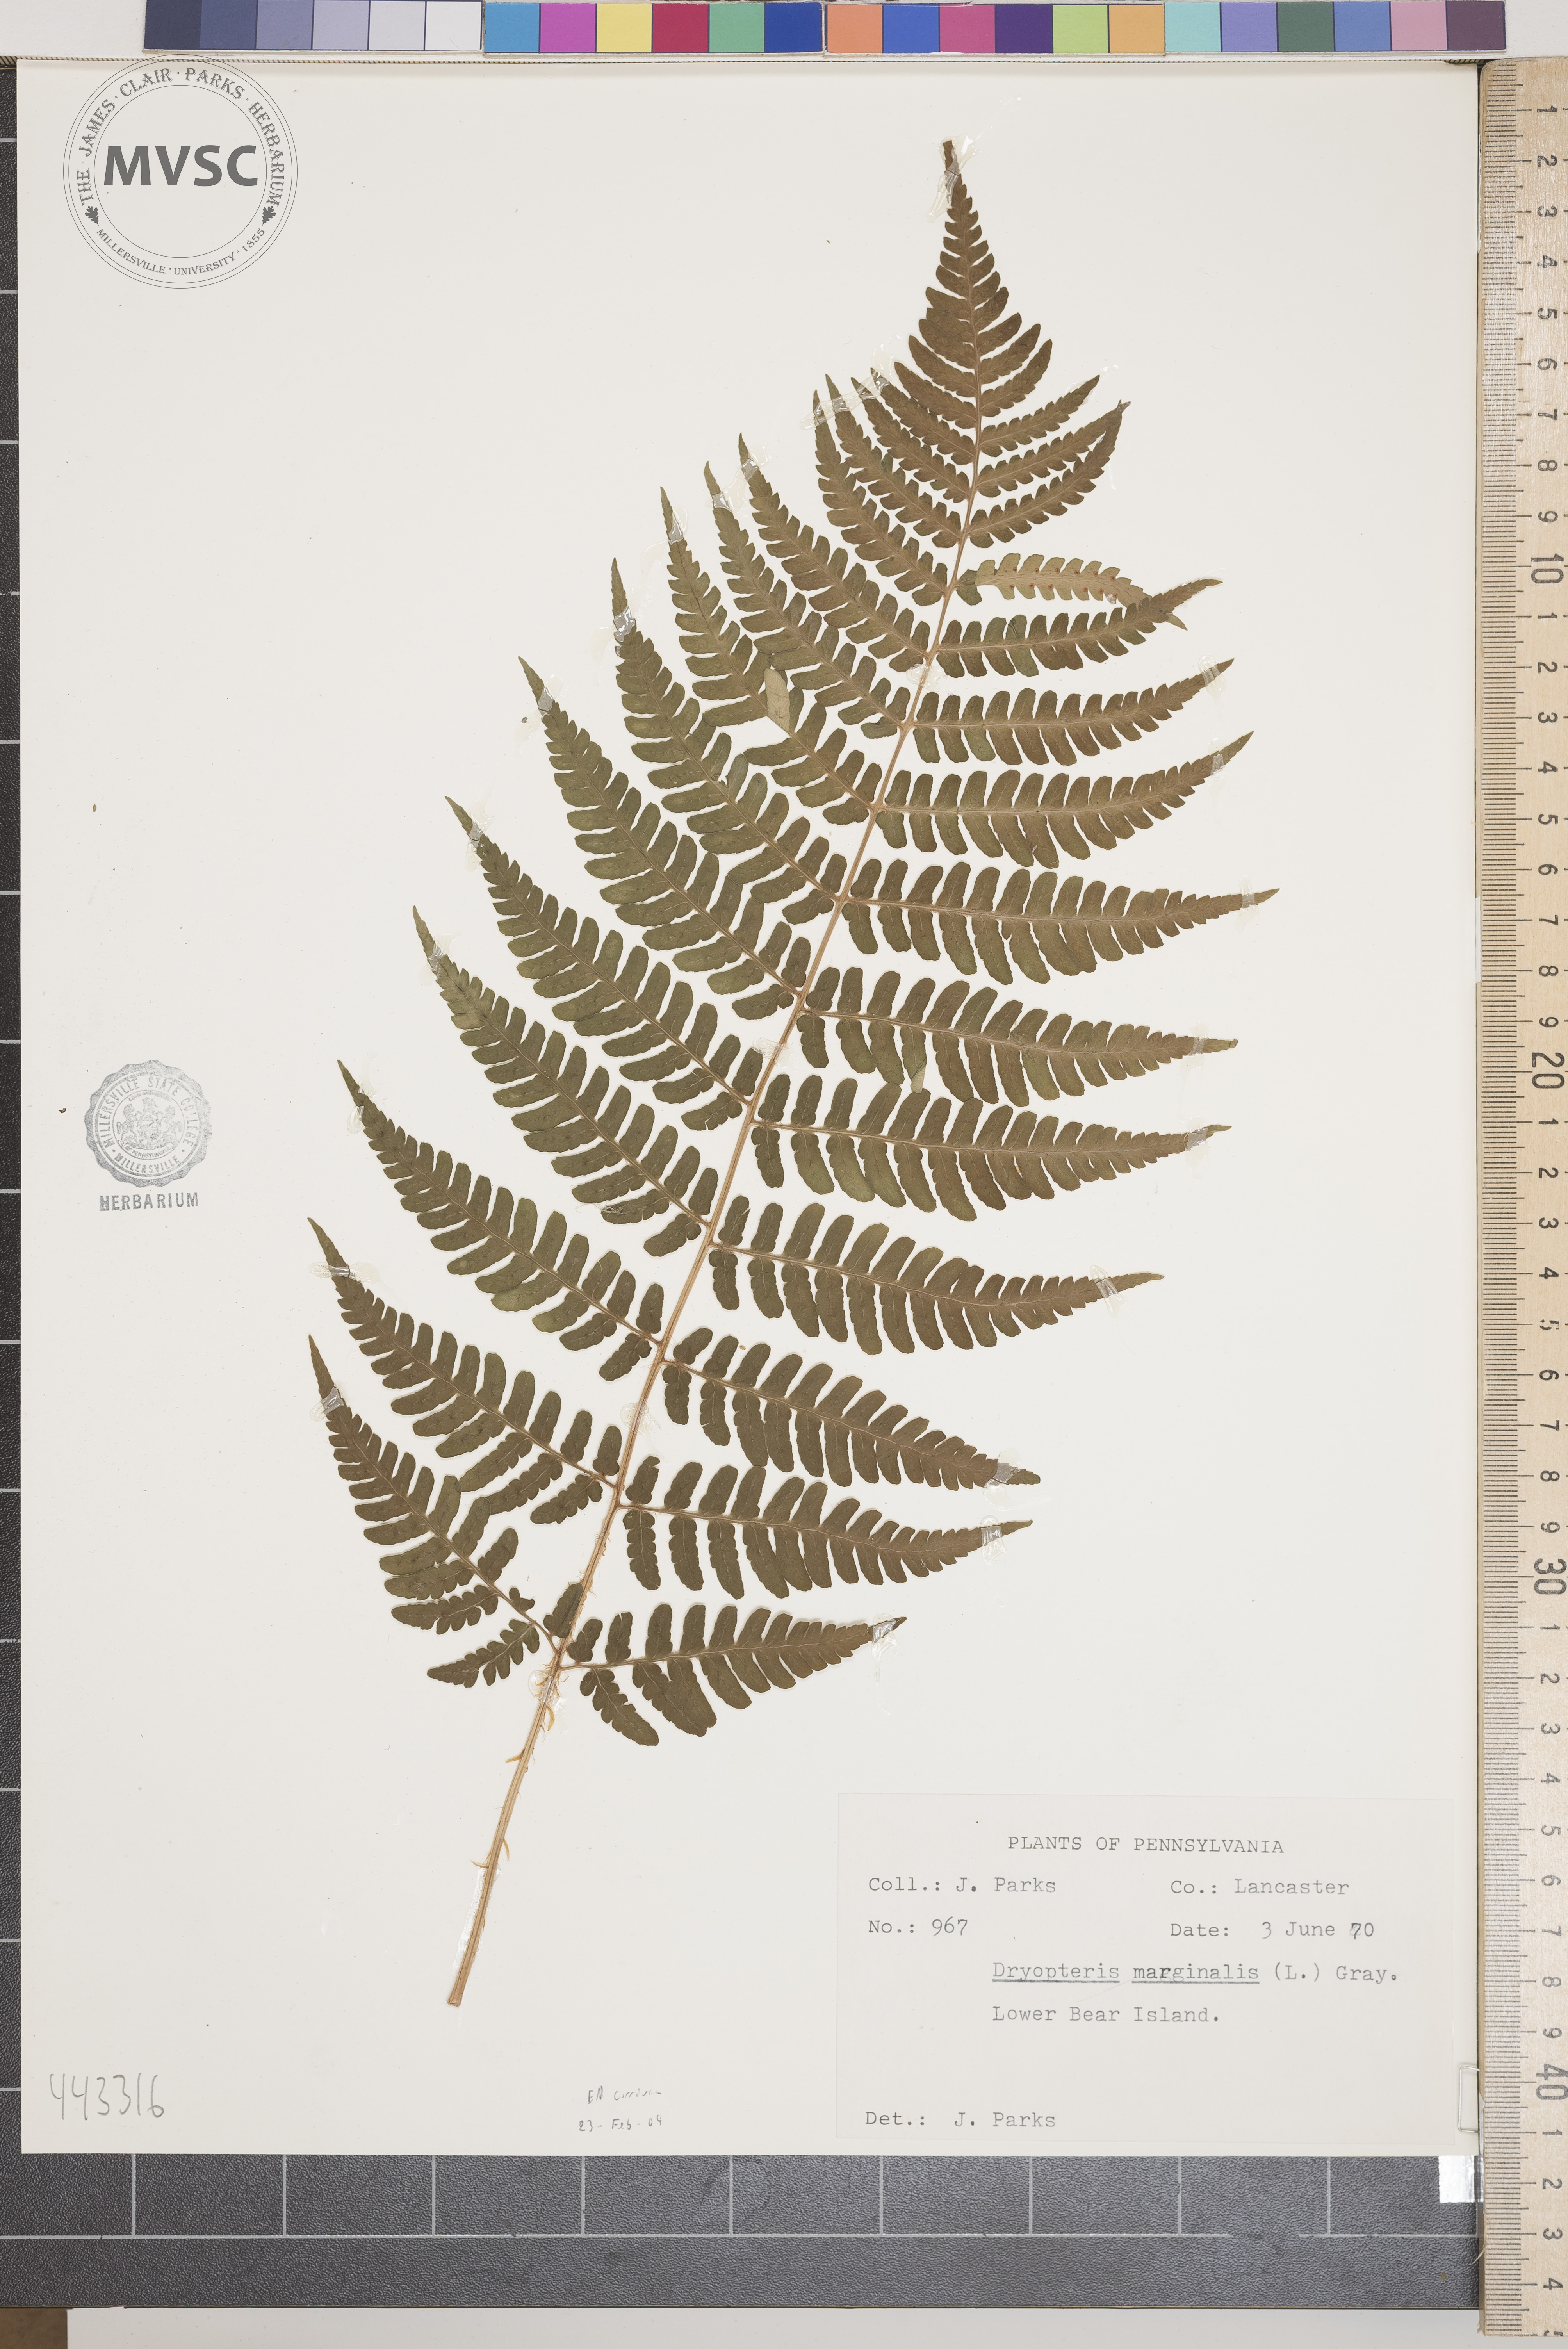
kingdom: Plantae
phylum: Tracheophyta
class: Polypodiopsida
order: Polypodiales
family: Dryopteridaceae
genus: Dryopteris
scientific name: Dryopteris marginalis
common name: Marginal wood fern
